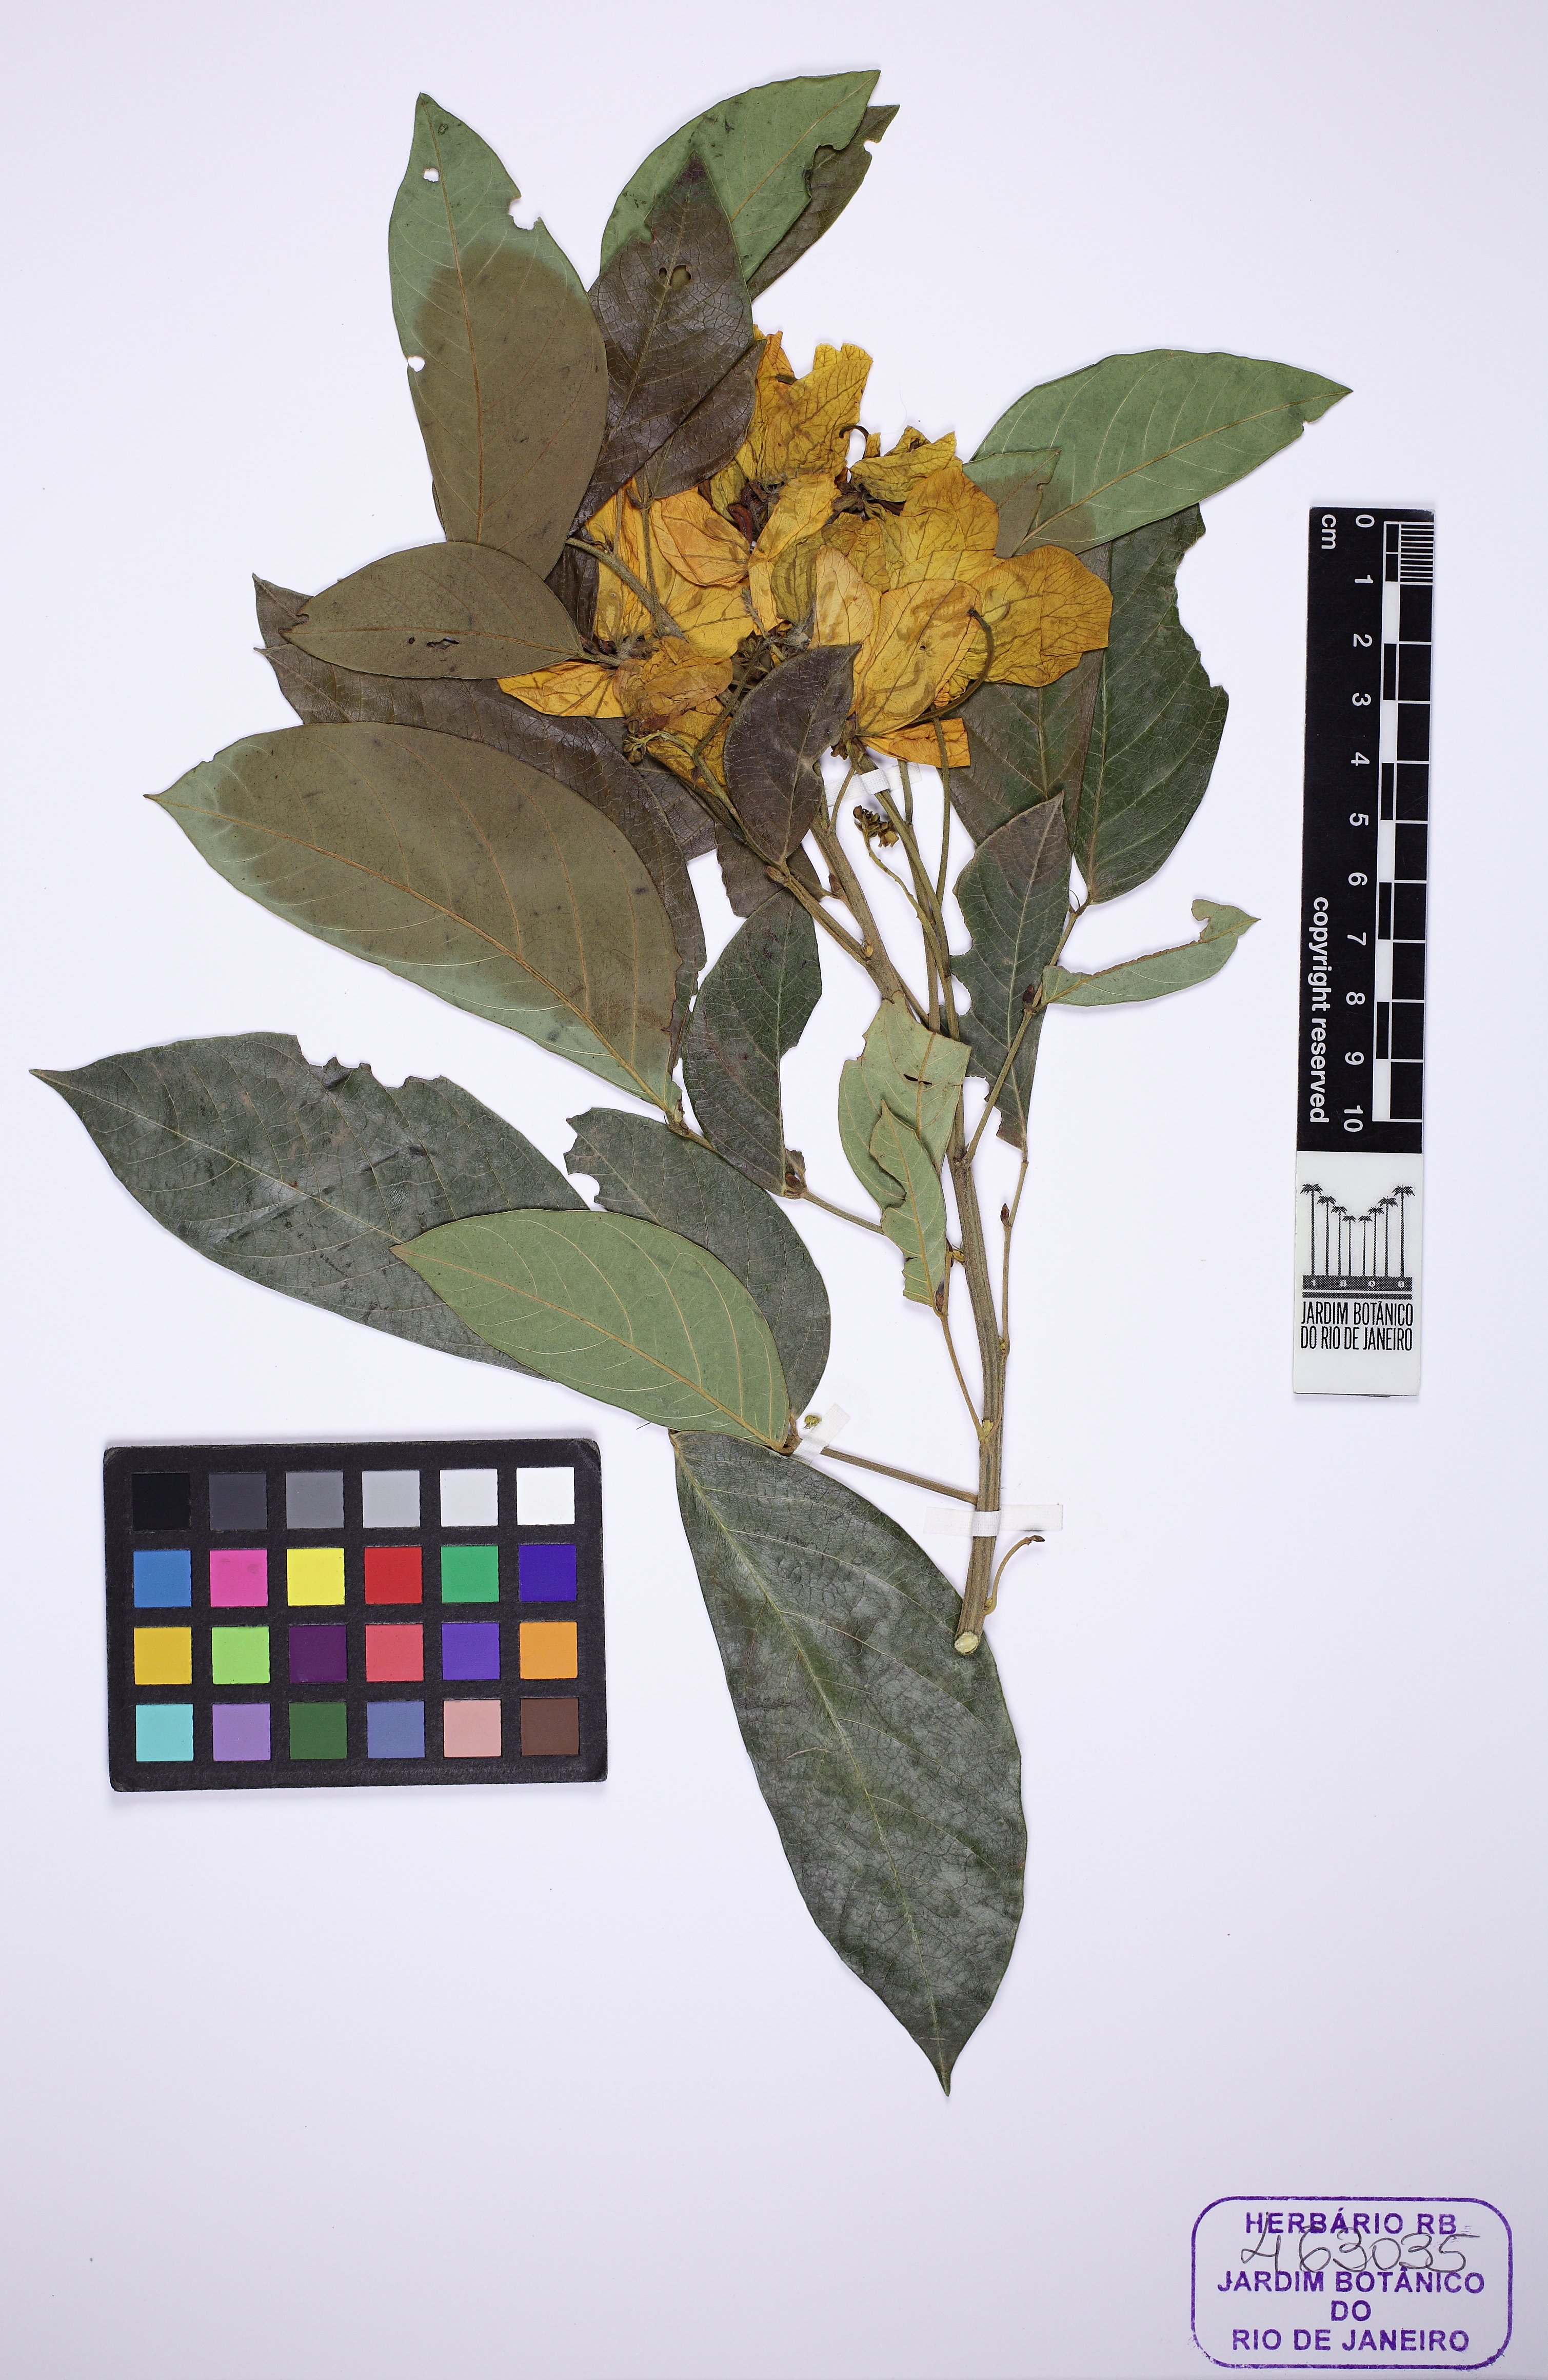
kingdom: Plantae
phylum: Tracheophyta
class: Magnoliopsida
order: Fabales
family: Fabaceae
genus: Senna
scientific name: Senna macranthera
